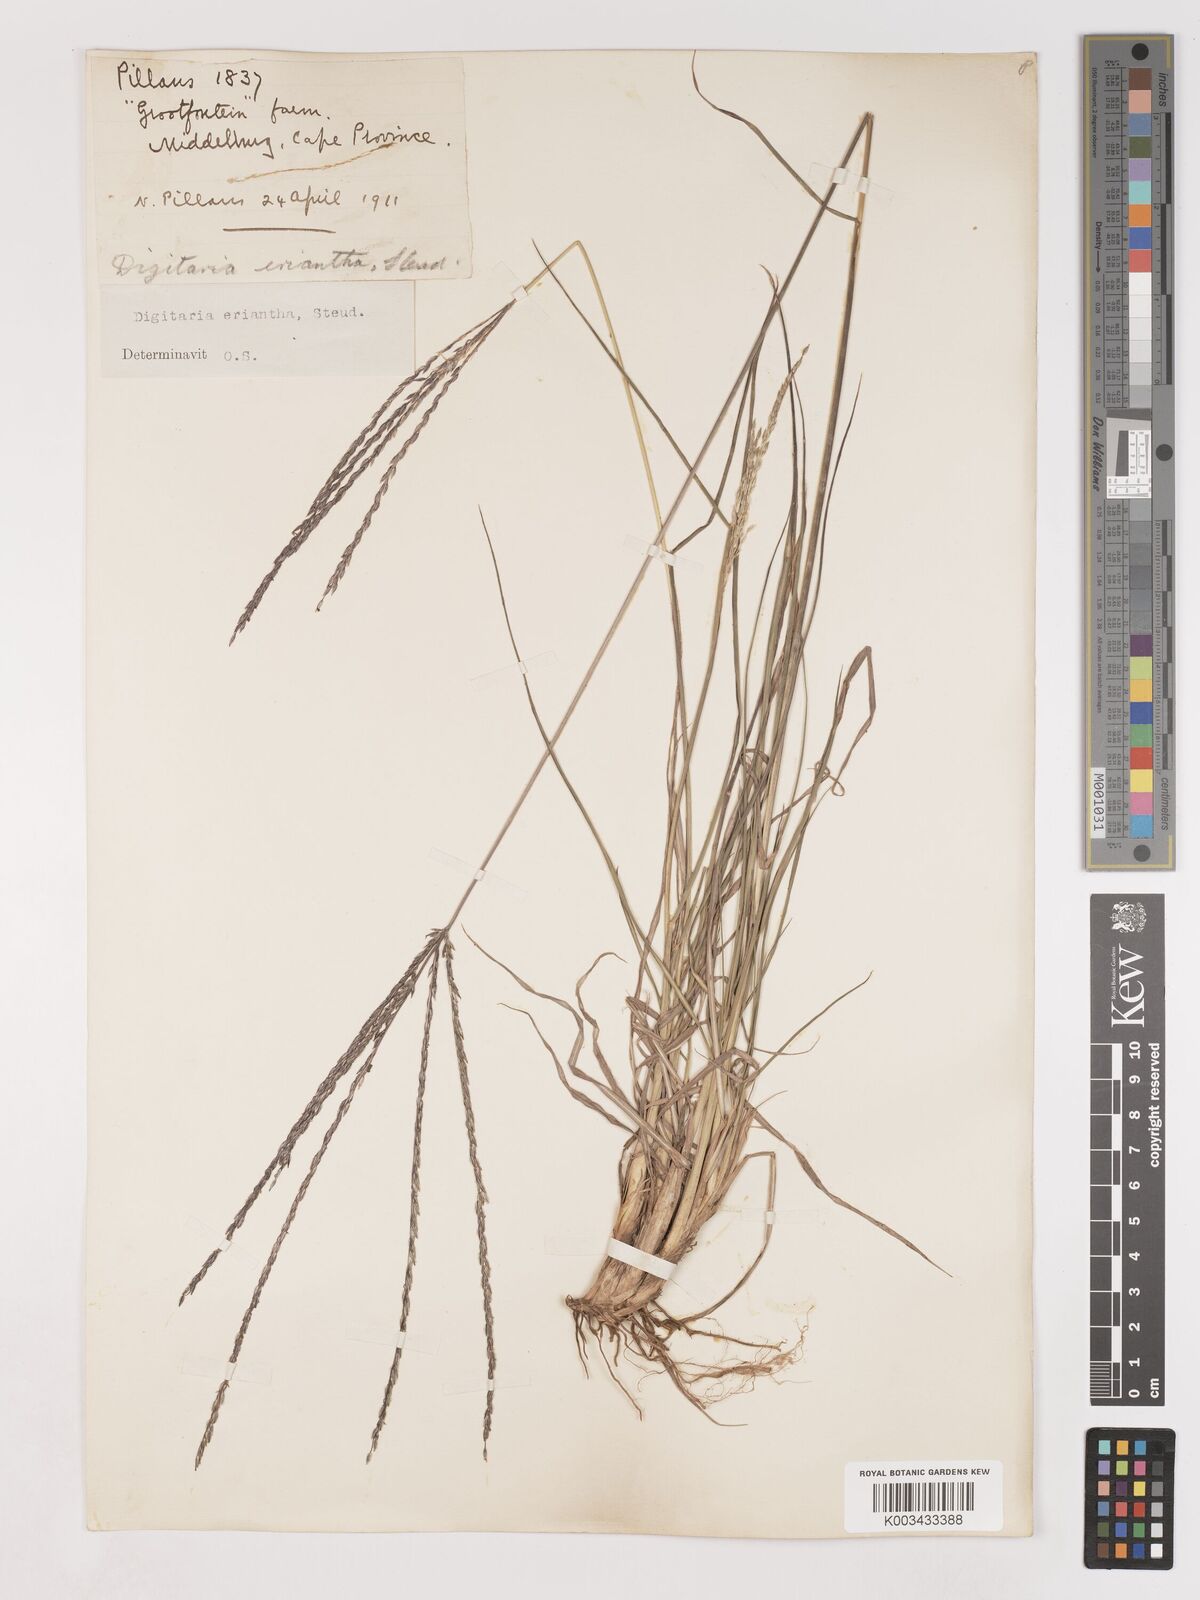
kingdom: Plantae
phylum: Tracheophyta
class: Liliopsida
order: Poales
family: Poaceae
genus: Digitaria
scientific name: Digitaria eriantha
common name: Digitgrass
